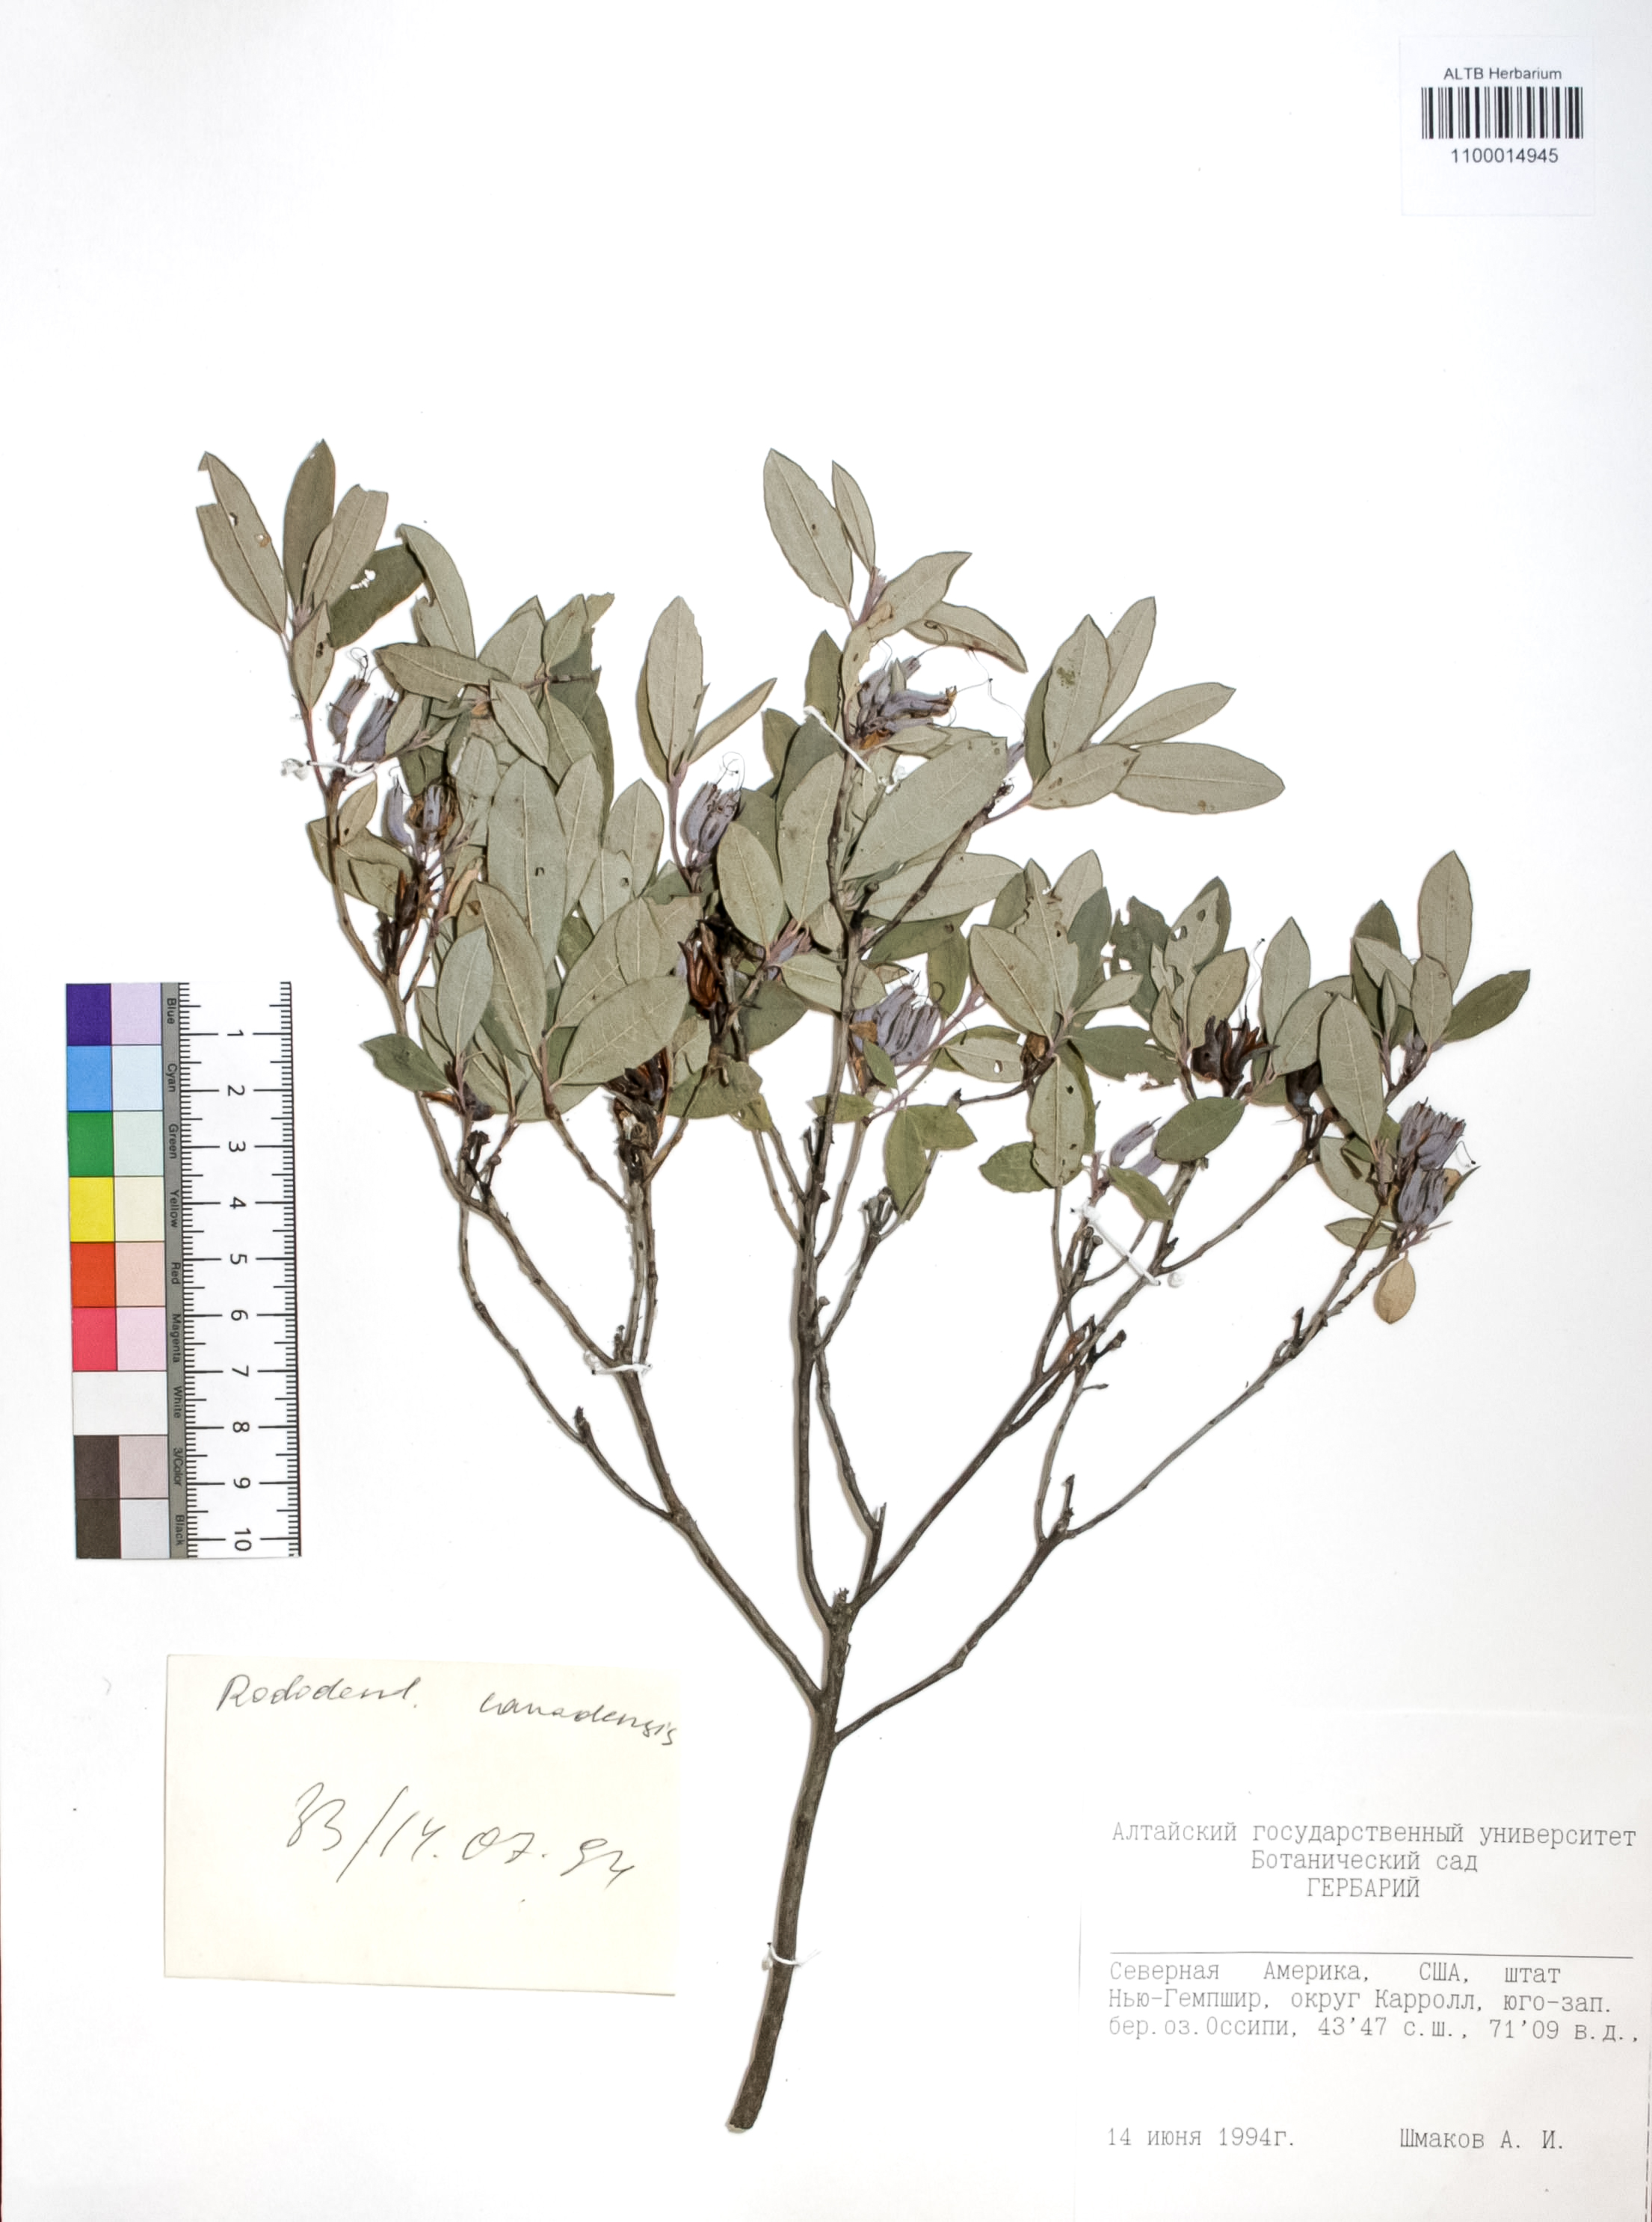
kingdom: Plantae
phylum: Tracheophyta
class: Magnoliopsida
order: Ericales
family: Ericaceae
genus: Rhododendron
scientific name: Rhododendron canadense
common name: Rhodora
